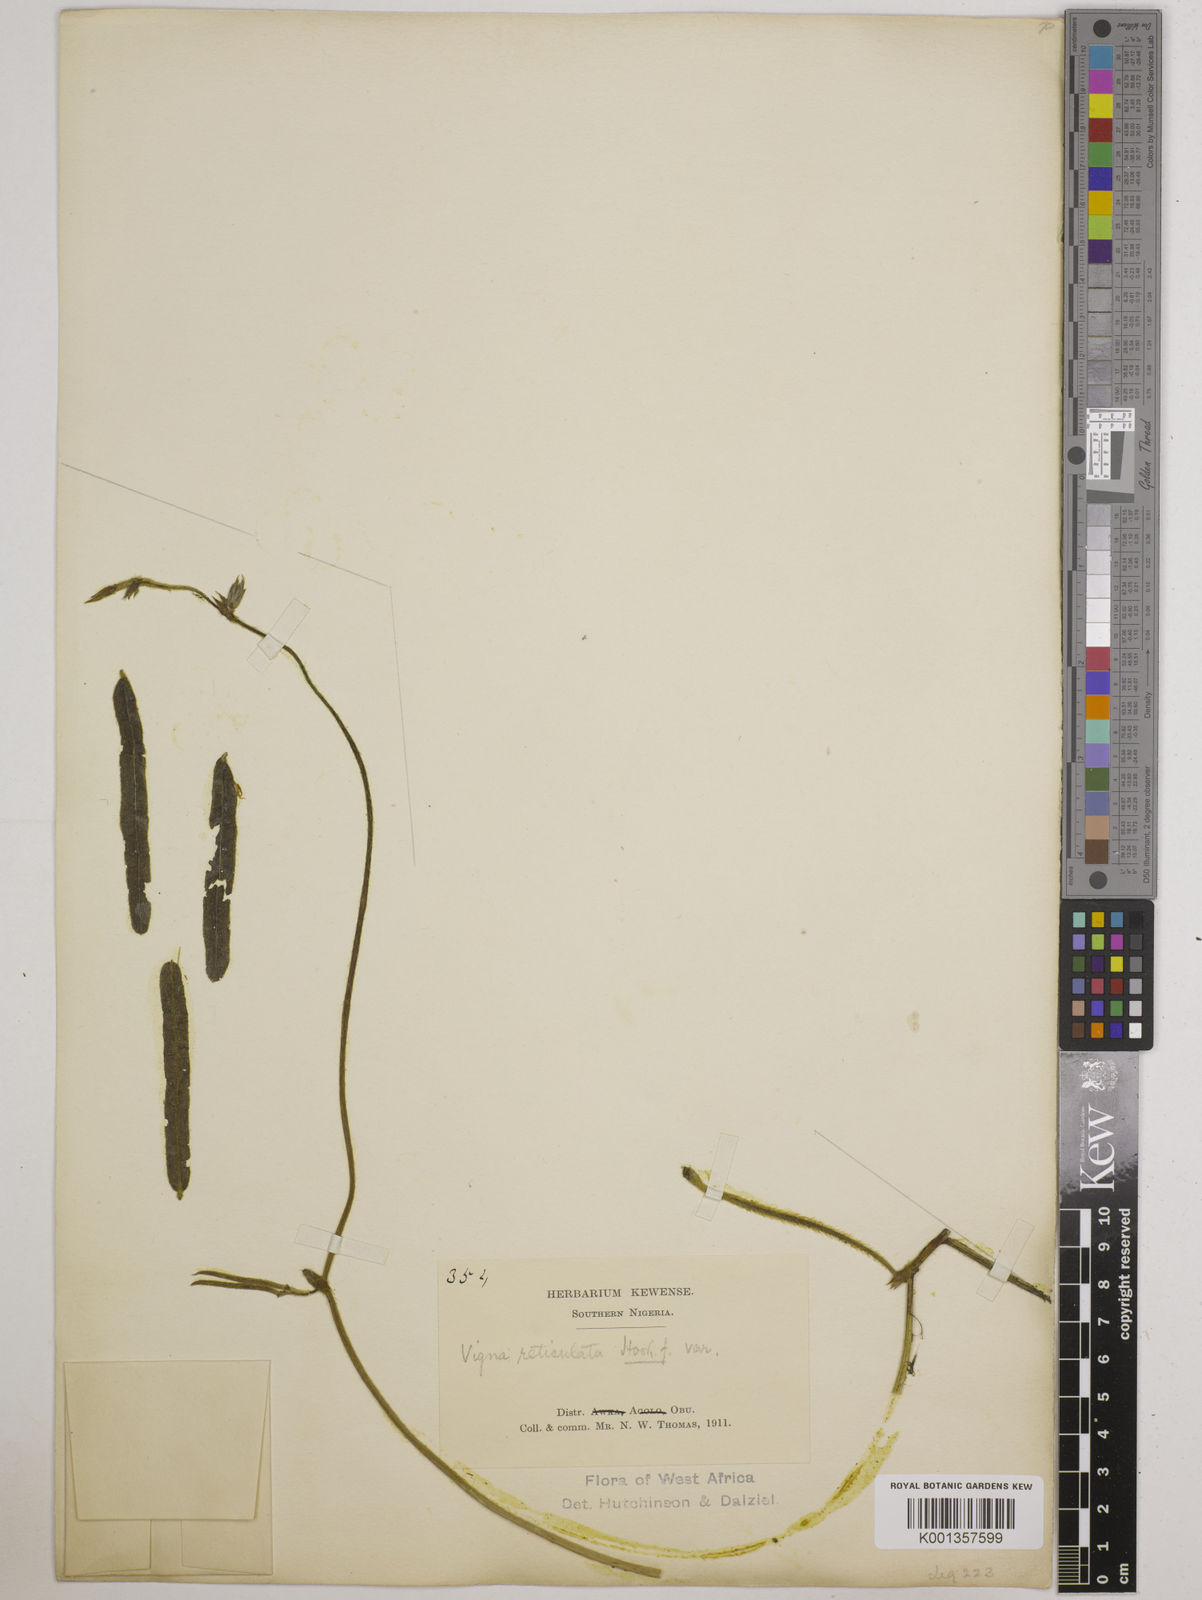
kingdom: Plantae
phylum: Tracheophyta
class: Magnoliopsida
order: Fabales
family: Fabaceae
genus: Vigna
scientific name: Vigna reticulata
